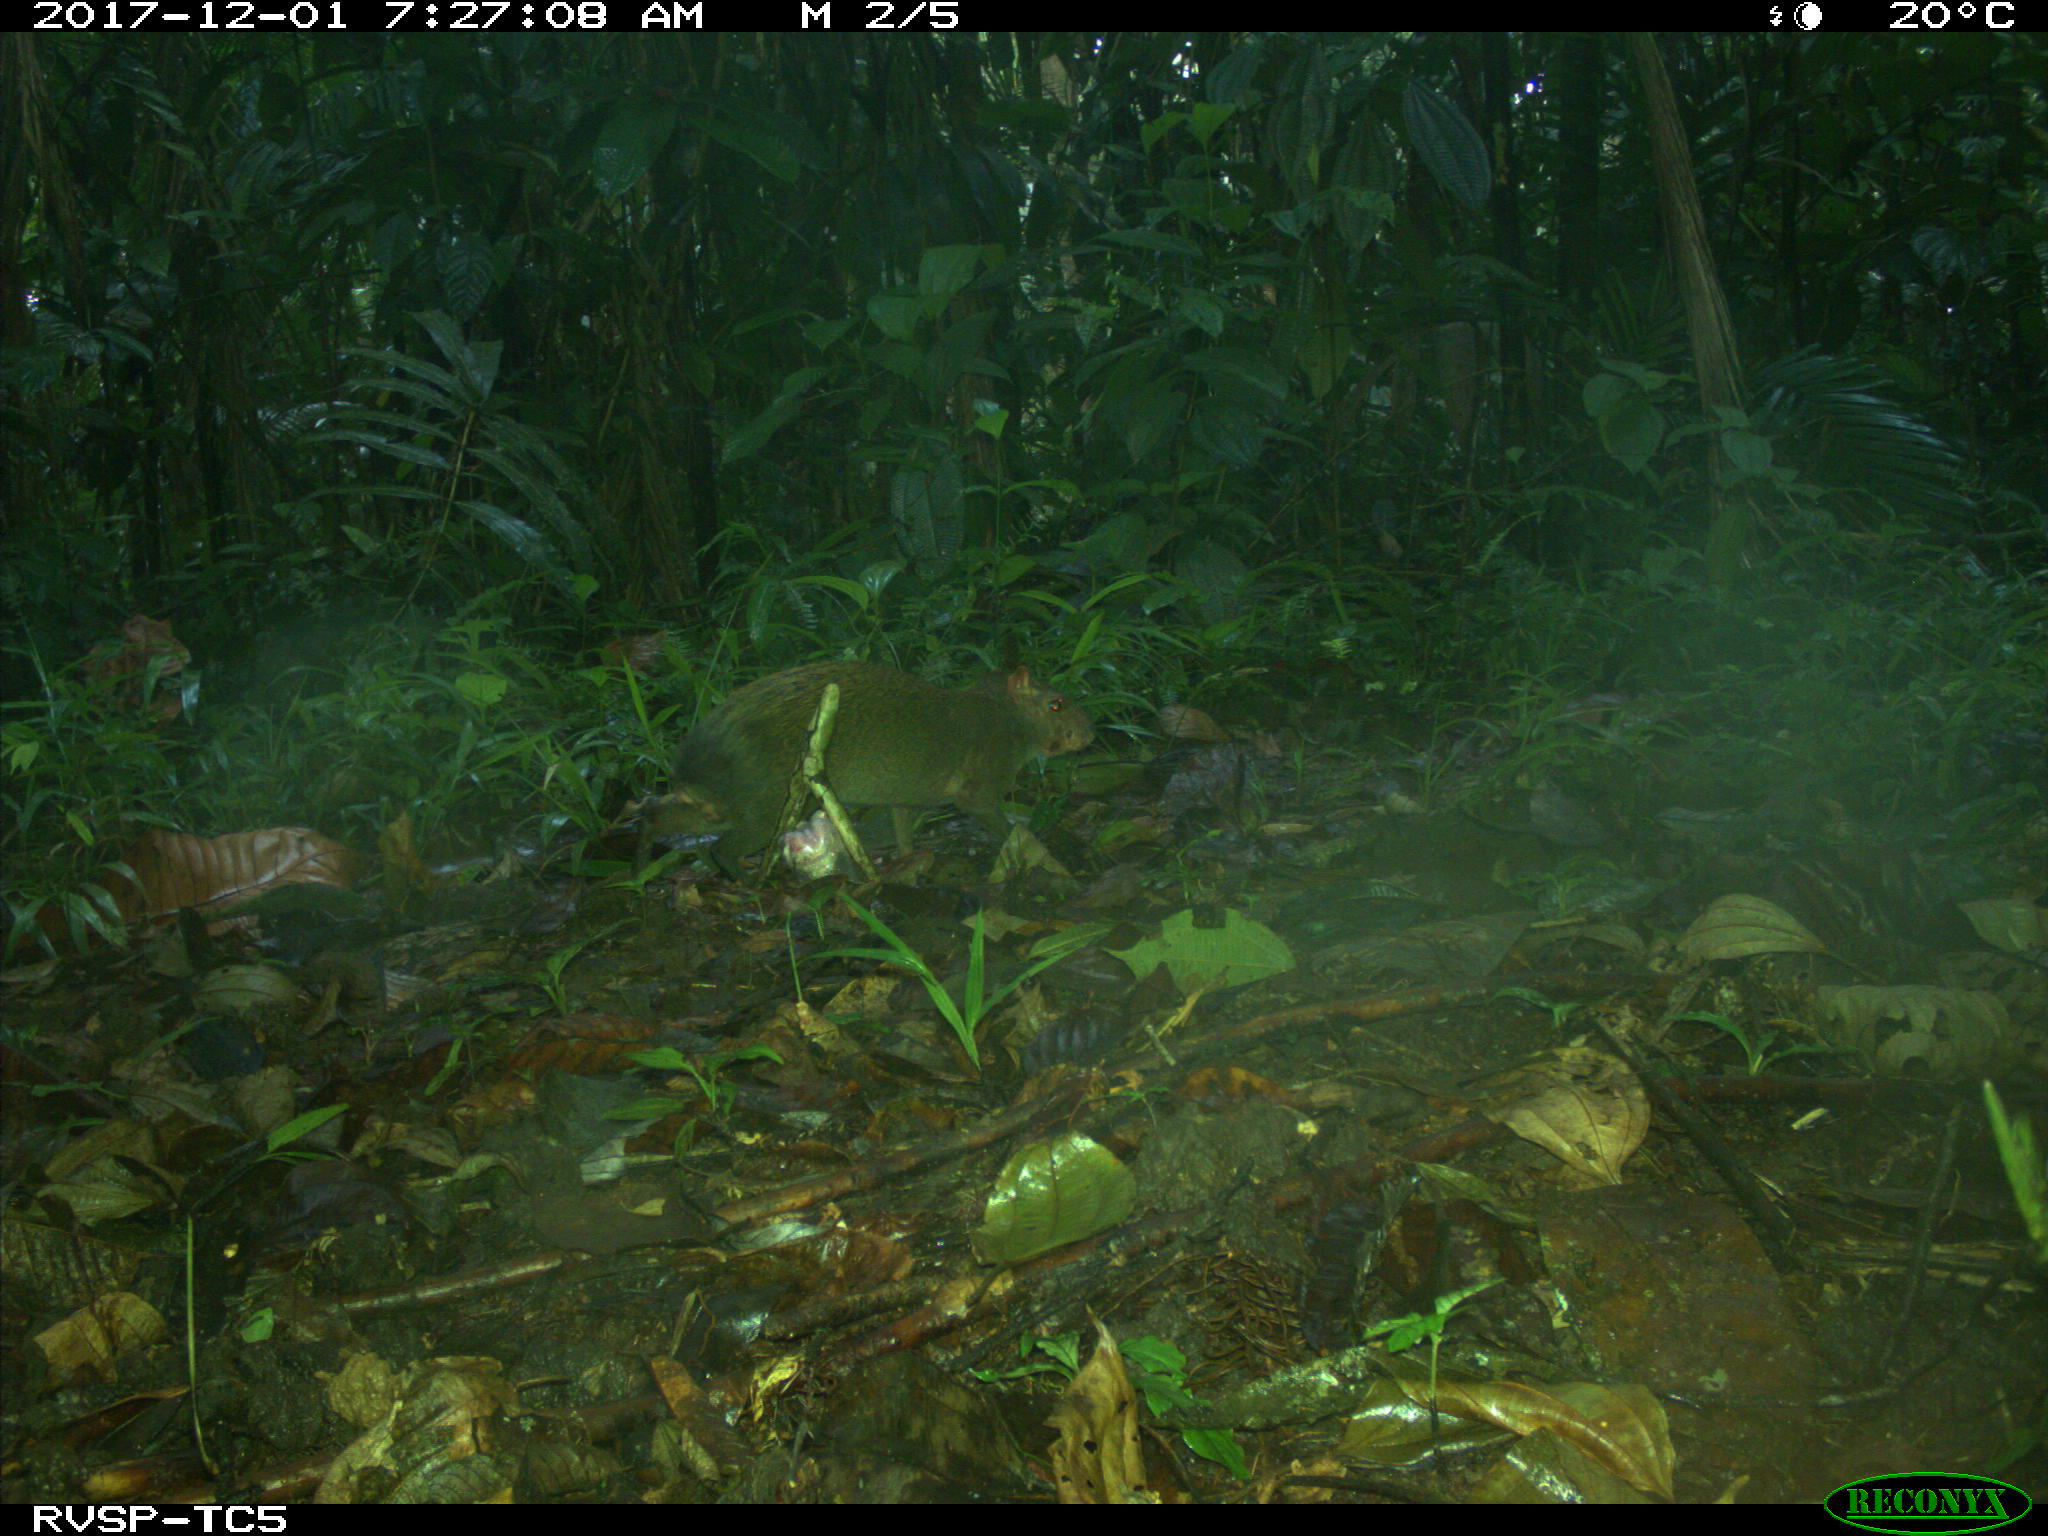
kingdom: Animalia
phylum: Chordata
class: Mammalia
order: Rodentia
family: Dasyproctidae
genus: Dasyprocta
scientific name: Dasyprocta punctata
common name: Central american agouti
